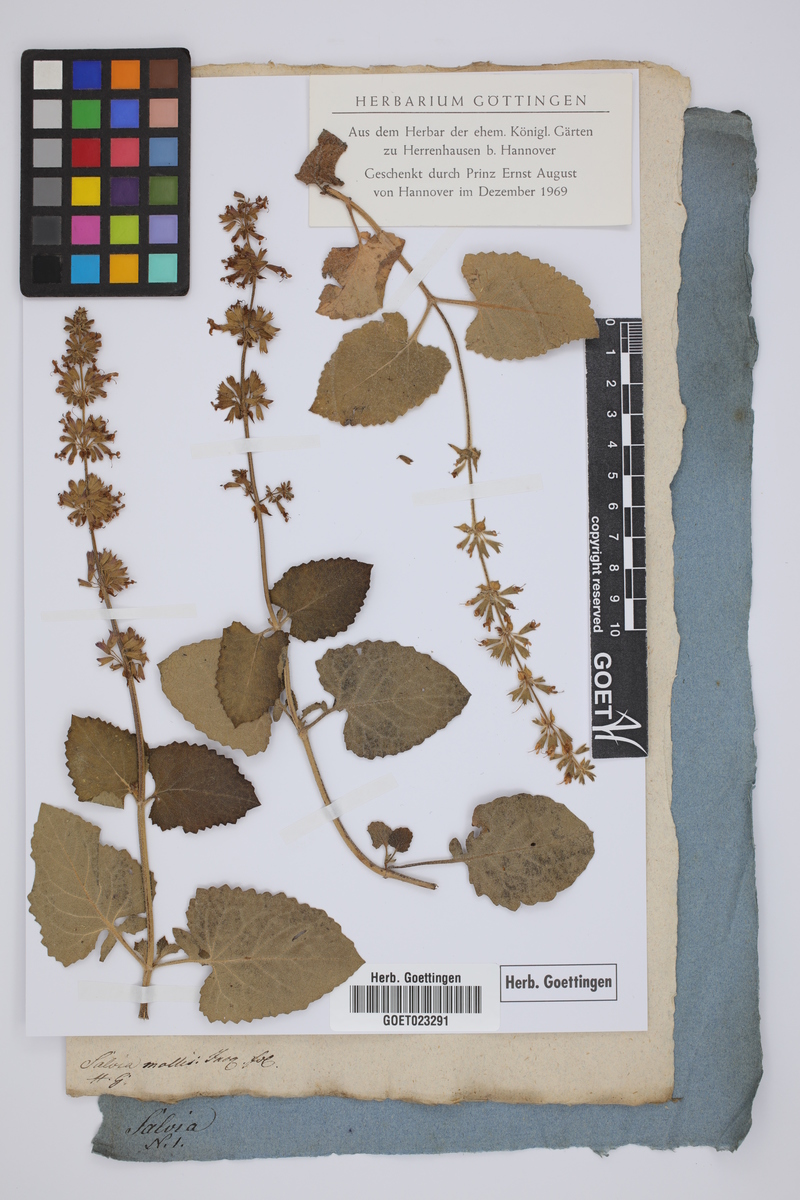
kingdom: Plantae
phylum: Tracheophyta
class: Magnoliopsida
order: Lamiales
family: Lamiaceae
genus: Salvia
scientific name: Salvia virgata
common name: Wand sage
